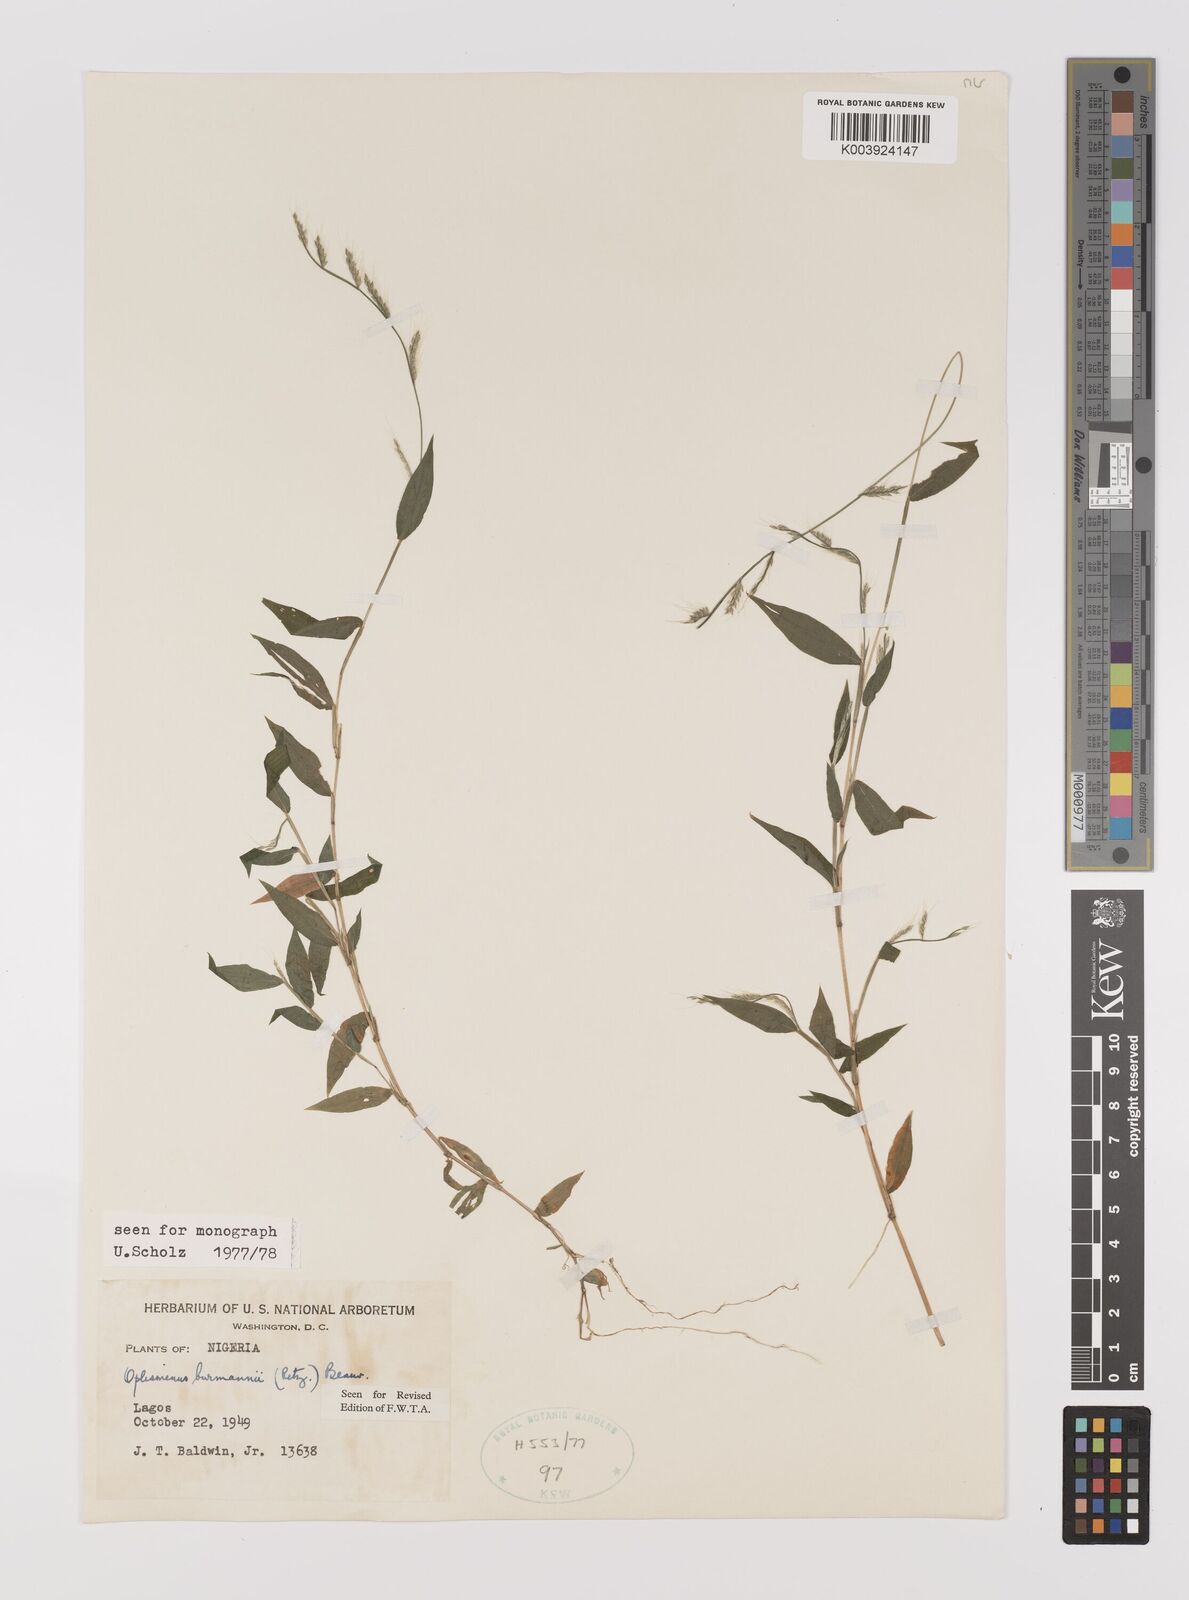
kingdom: Plantae
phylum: Tracheophyta
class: Liliopsida
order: Poales
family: Poaceae
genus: Oplismenus
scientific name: Oplismenus burmanni
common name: Burmann's basketgrass
